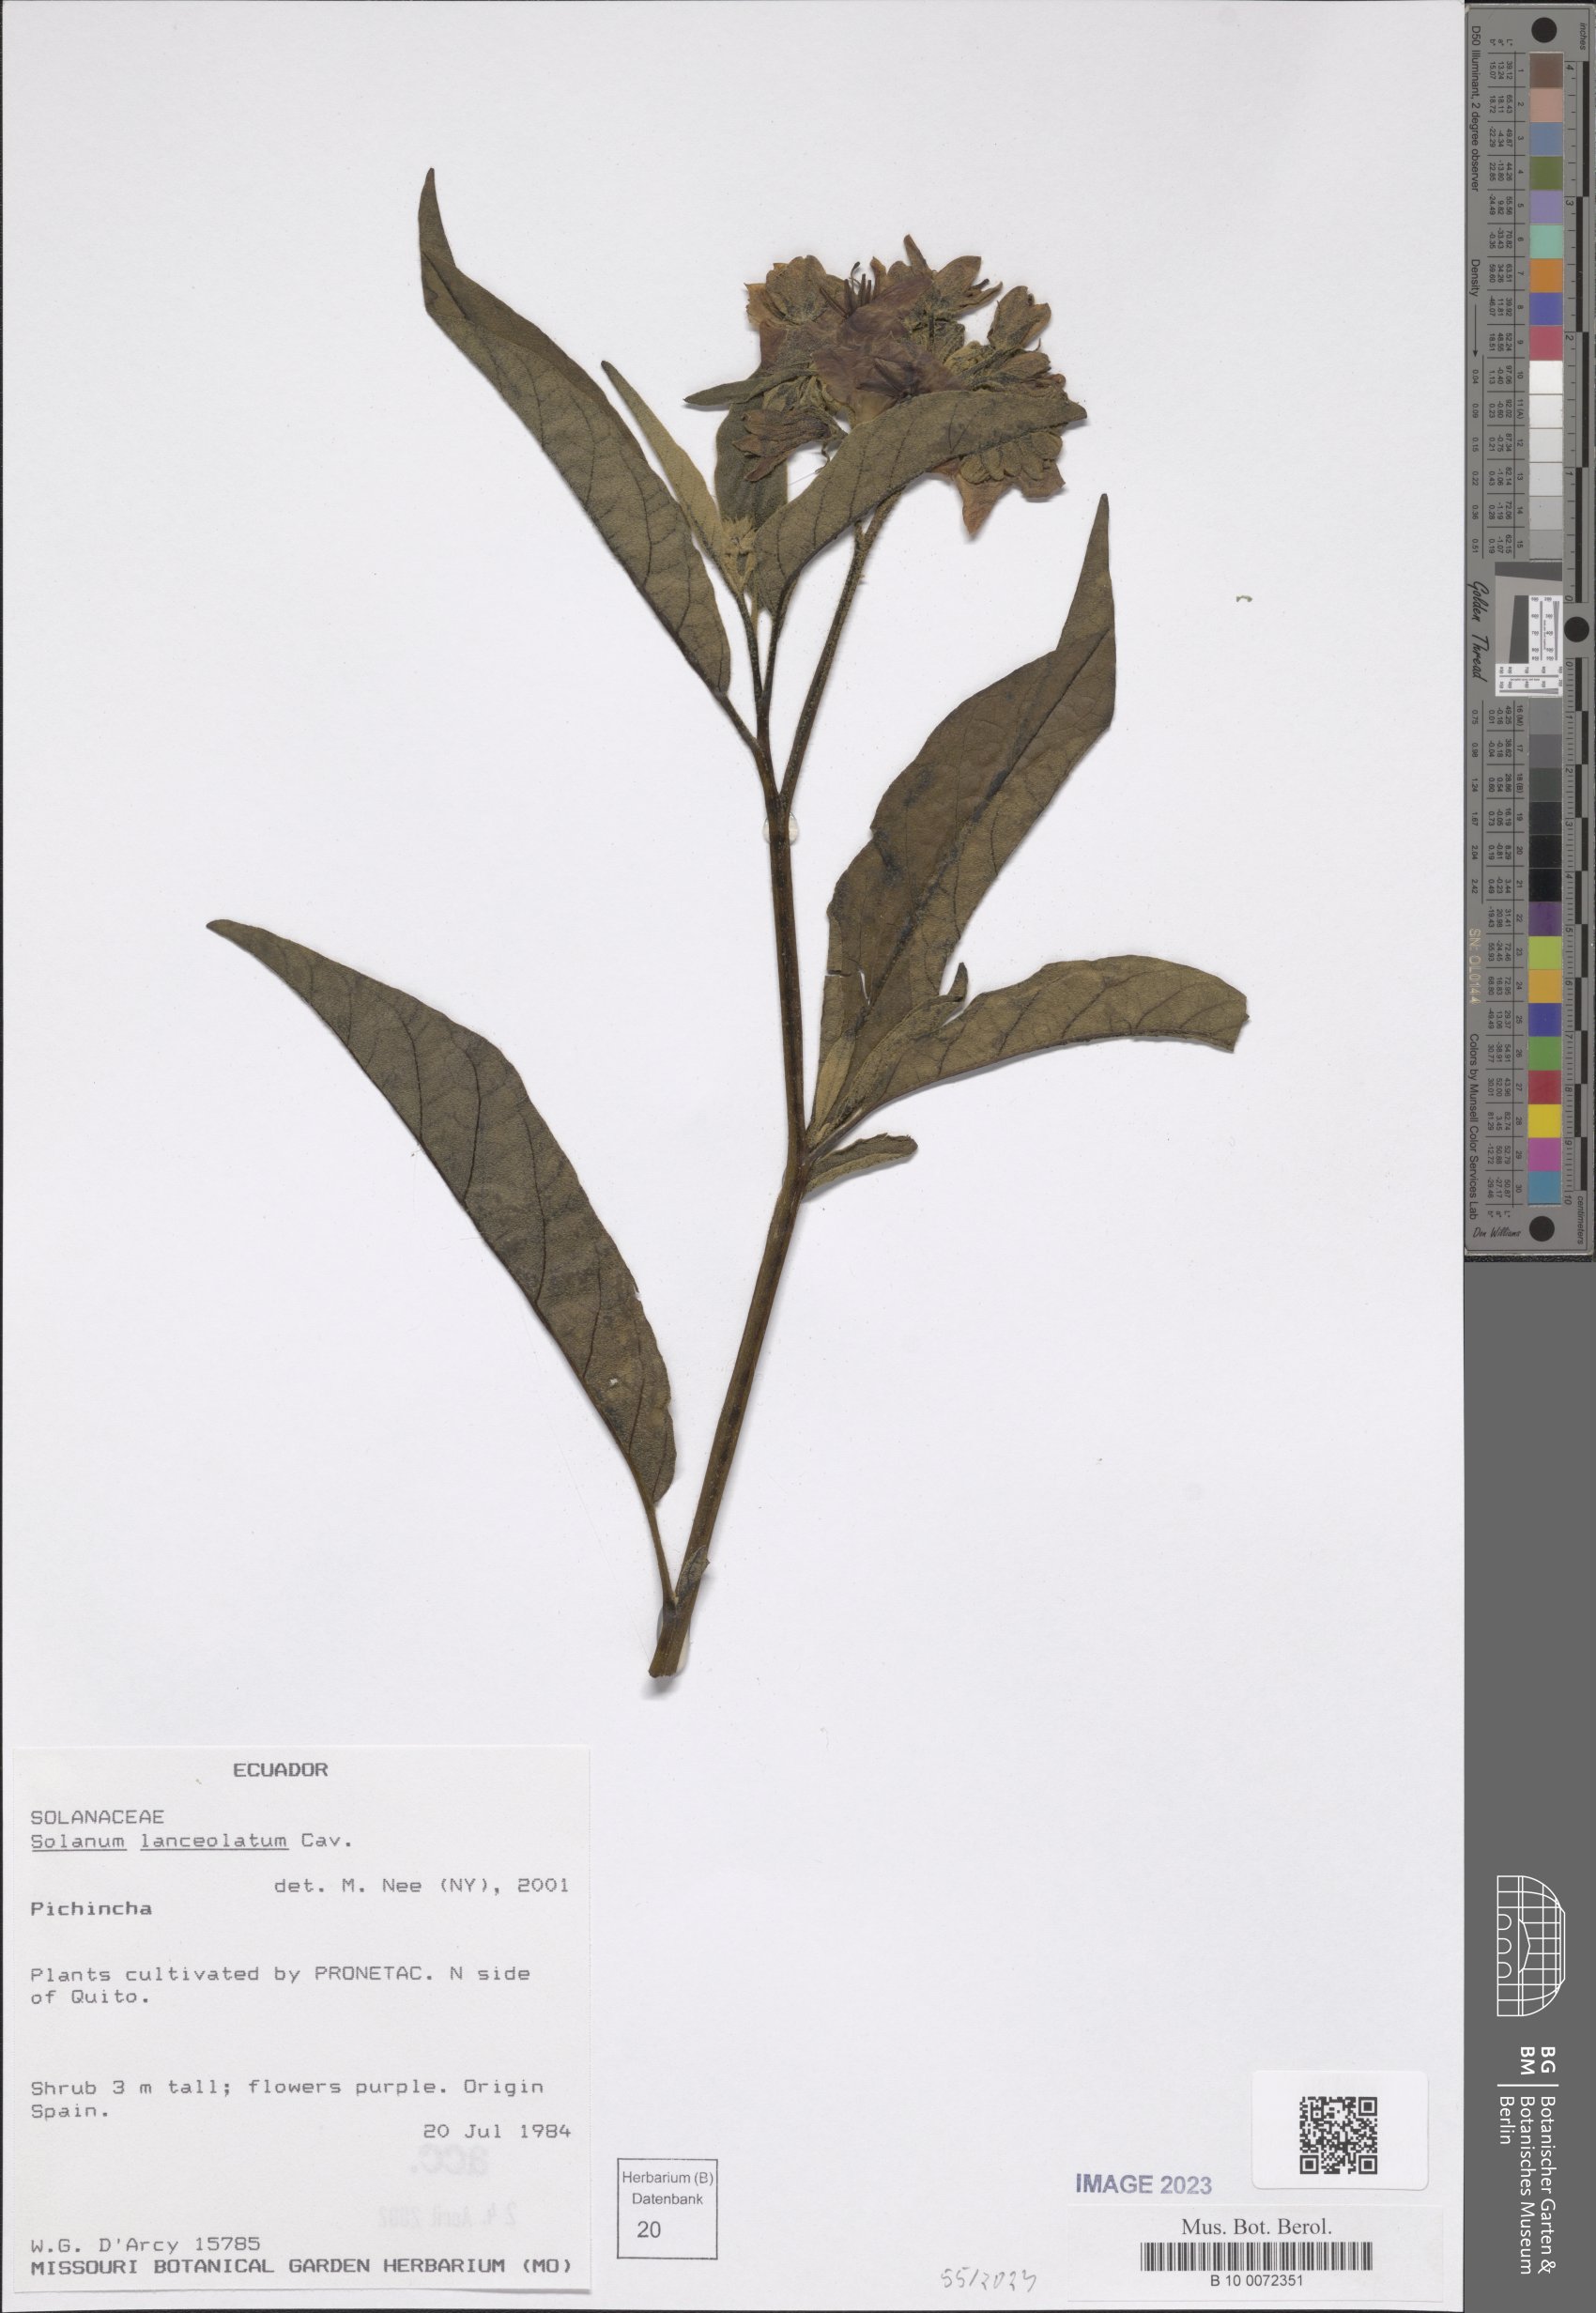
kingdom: Plantae
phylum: Tracheophyta
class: Magnoliopsida
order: Solanales
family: Solanaceae
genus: Solanum
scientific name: Solanum lanceolatum
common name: Orangeberry nightshade
